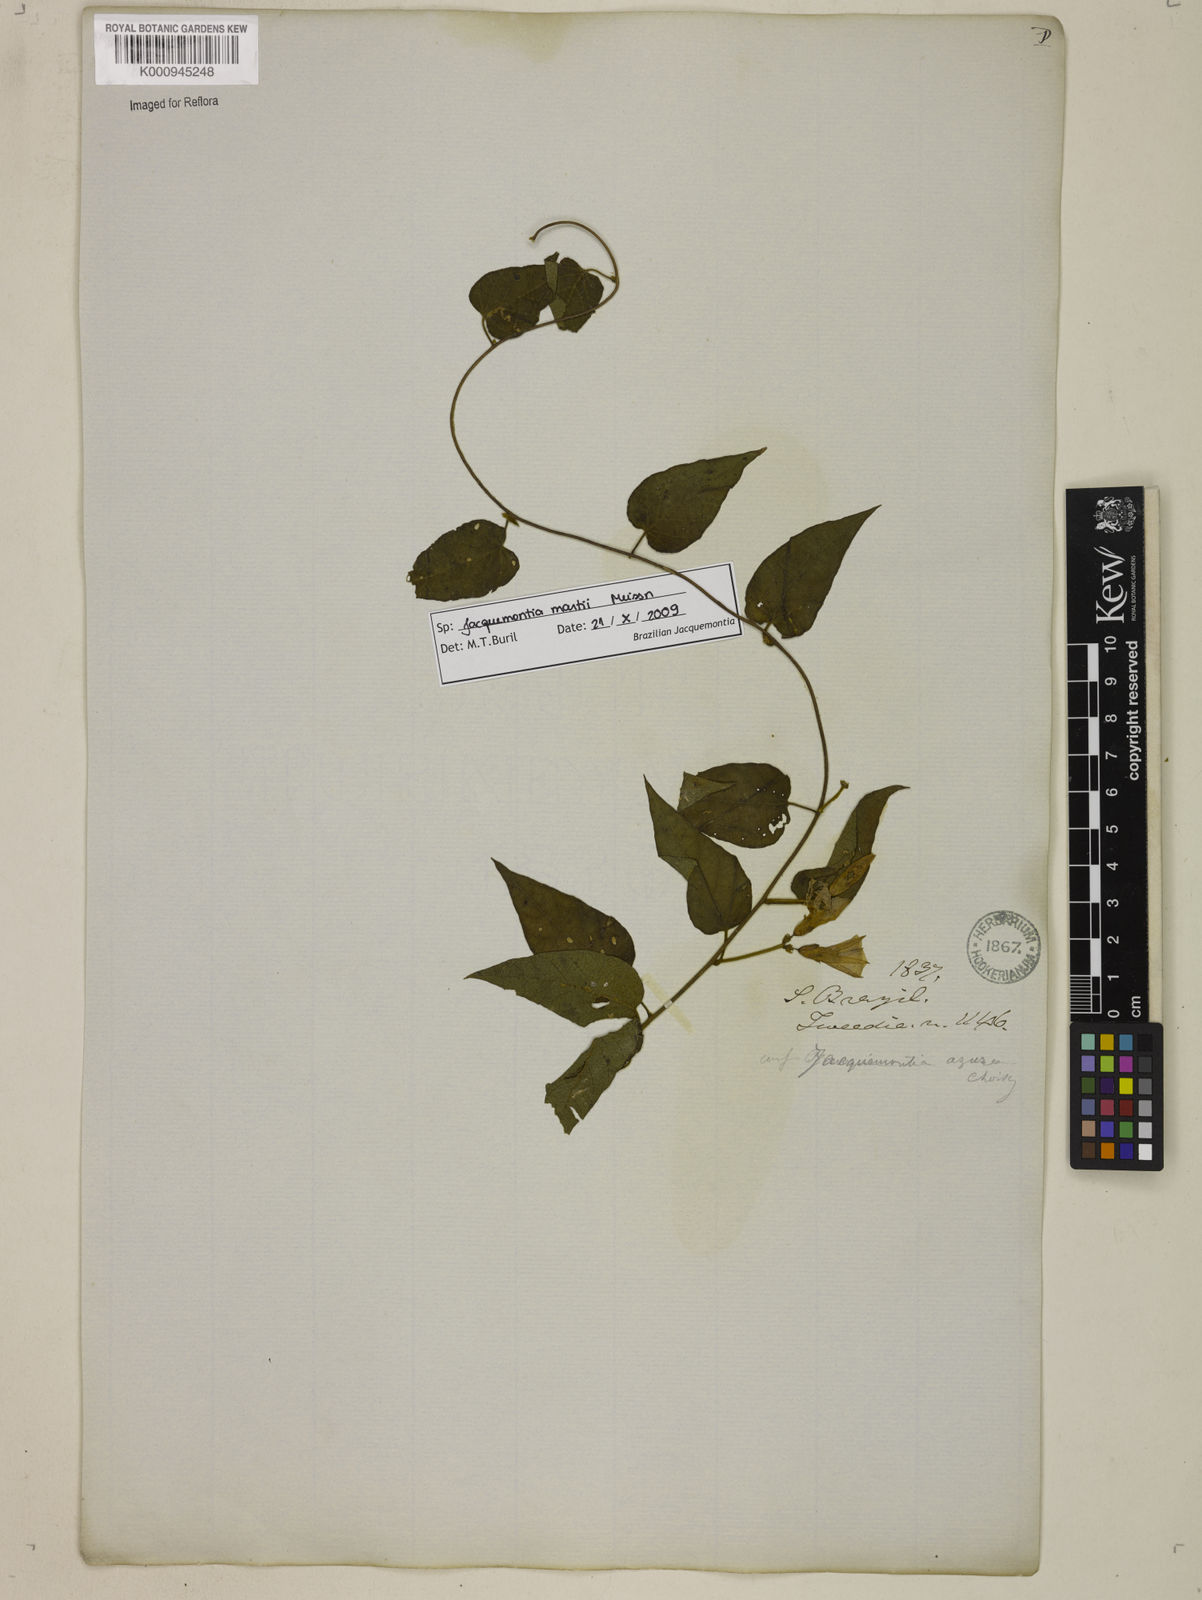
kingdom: Plantae
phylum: Tracheophyta
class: Magnoliopsida
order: Solanales
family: Convolvulaceae
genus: Jacquemontia
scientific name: Jacquemontia martii
